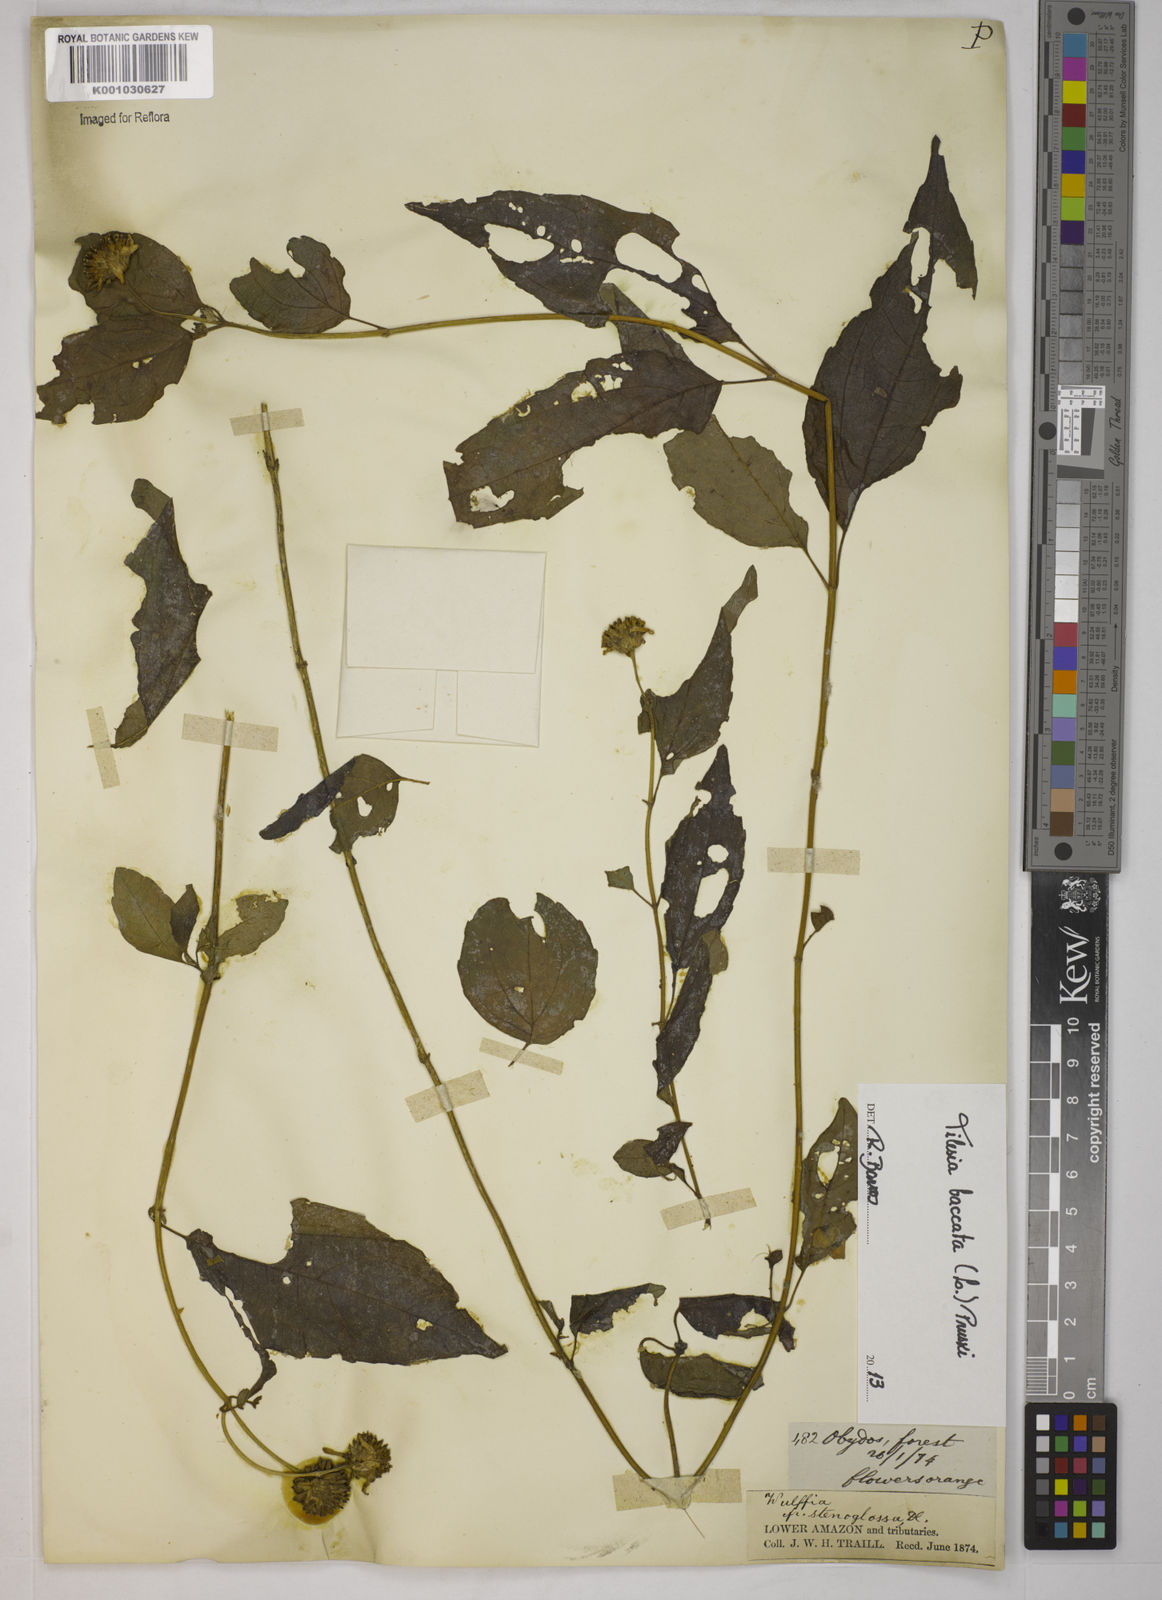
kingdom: Plantae
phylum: Tracheophyta
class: Magnoliopsida
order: Asterales
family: Asteraceae
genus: Tilesia
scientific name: Tilesia baccata
